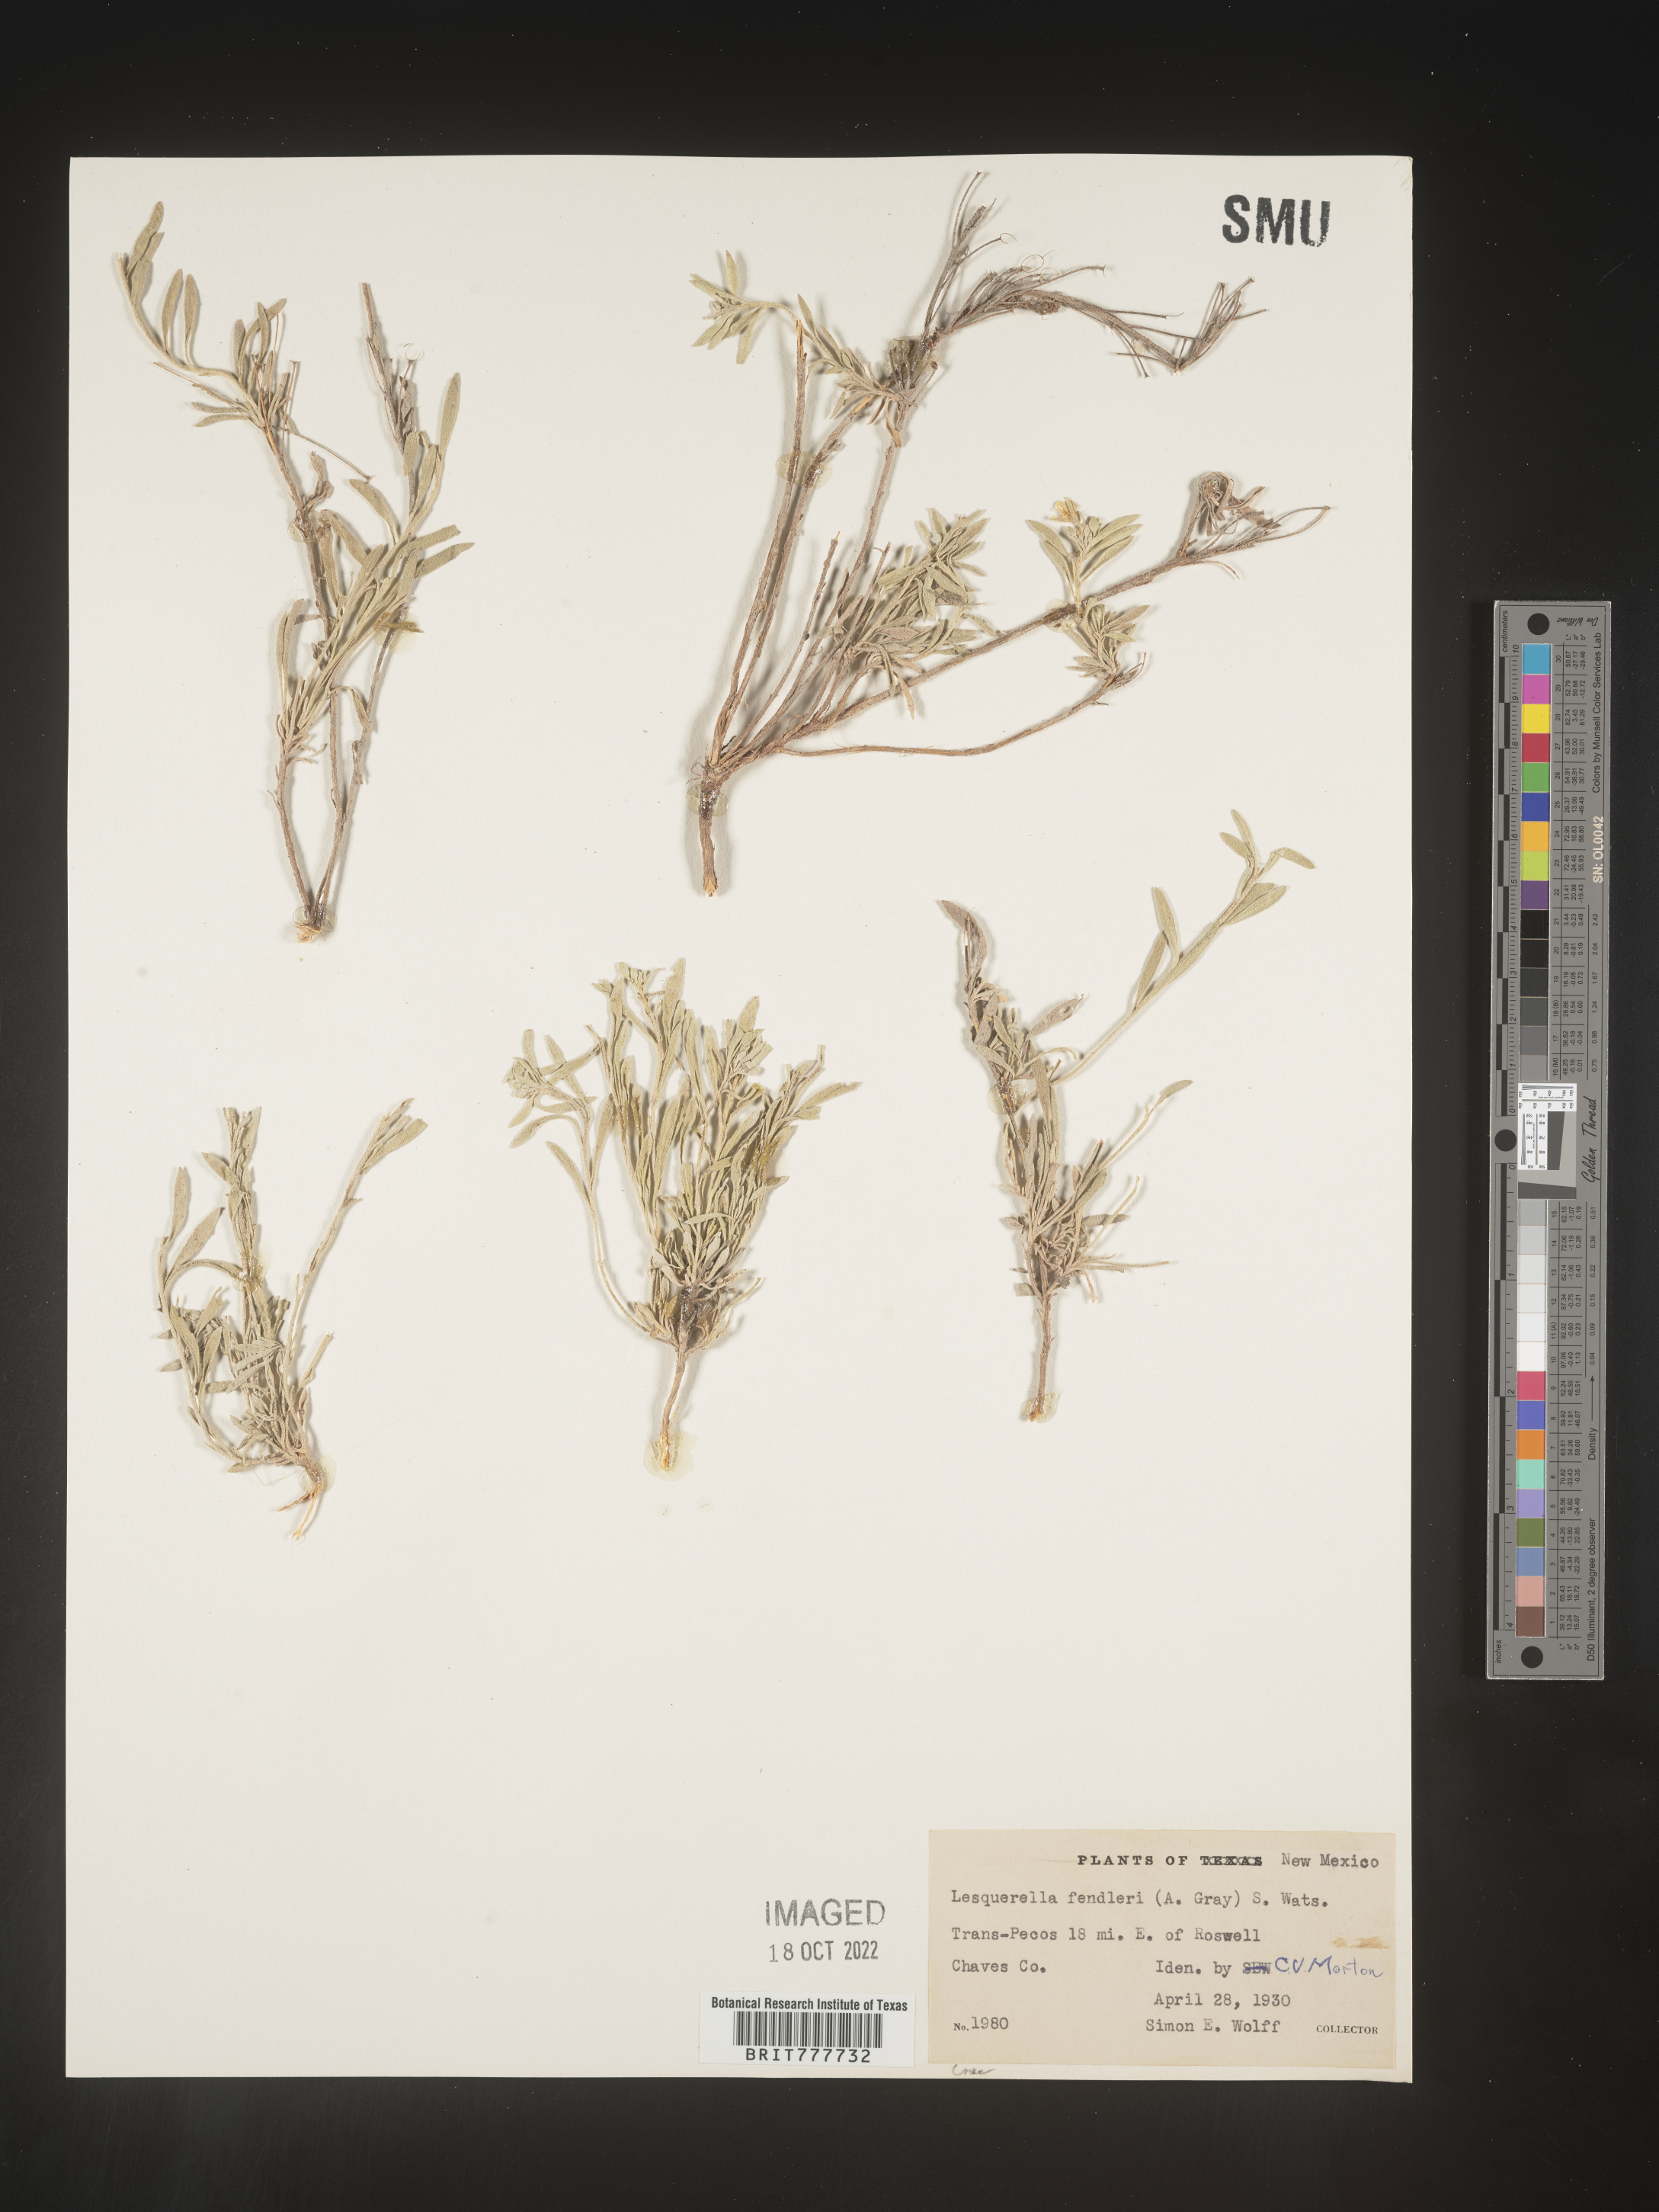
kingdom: Plantae
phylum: Tracheophyta
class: Magnoliopsida
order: Brassicales
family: Brassicaceae
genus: Physaria
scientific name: Physaria fendleri
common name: Fendler's bladderpod
